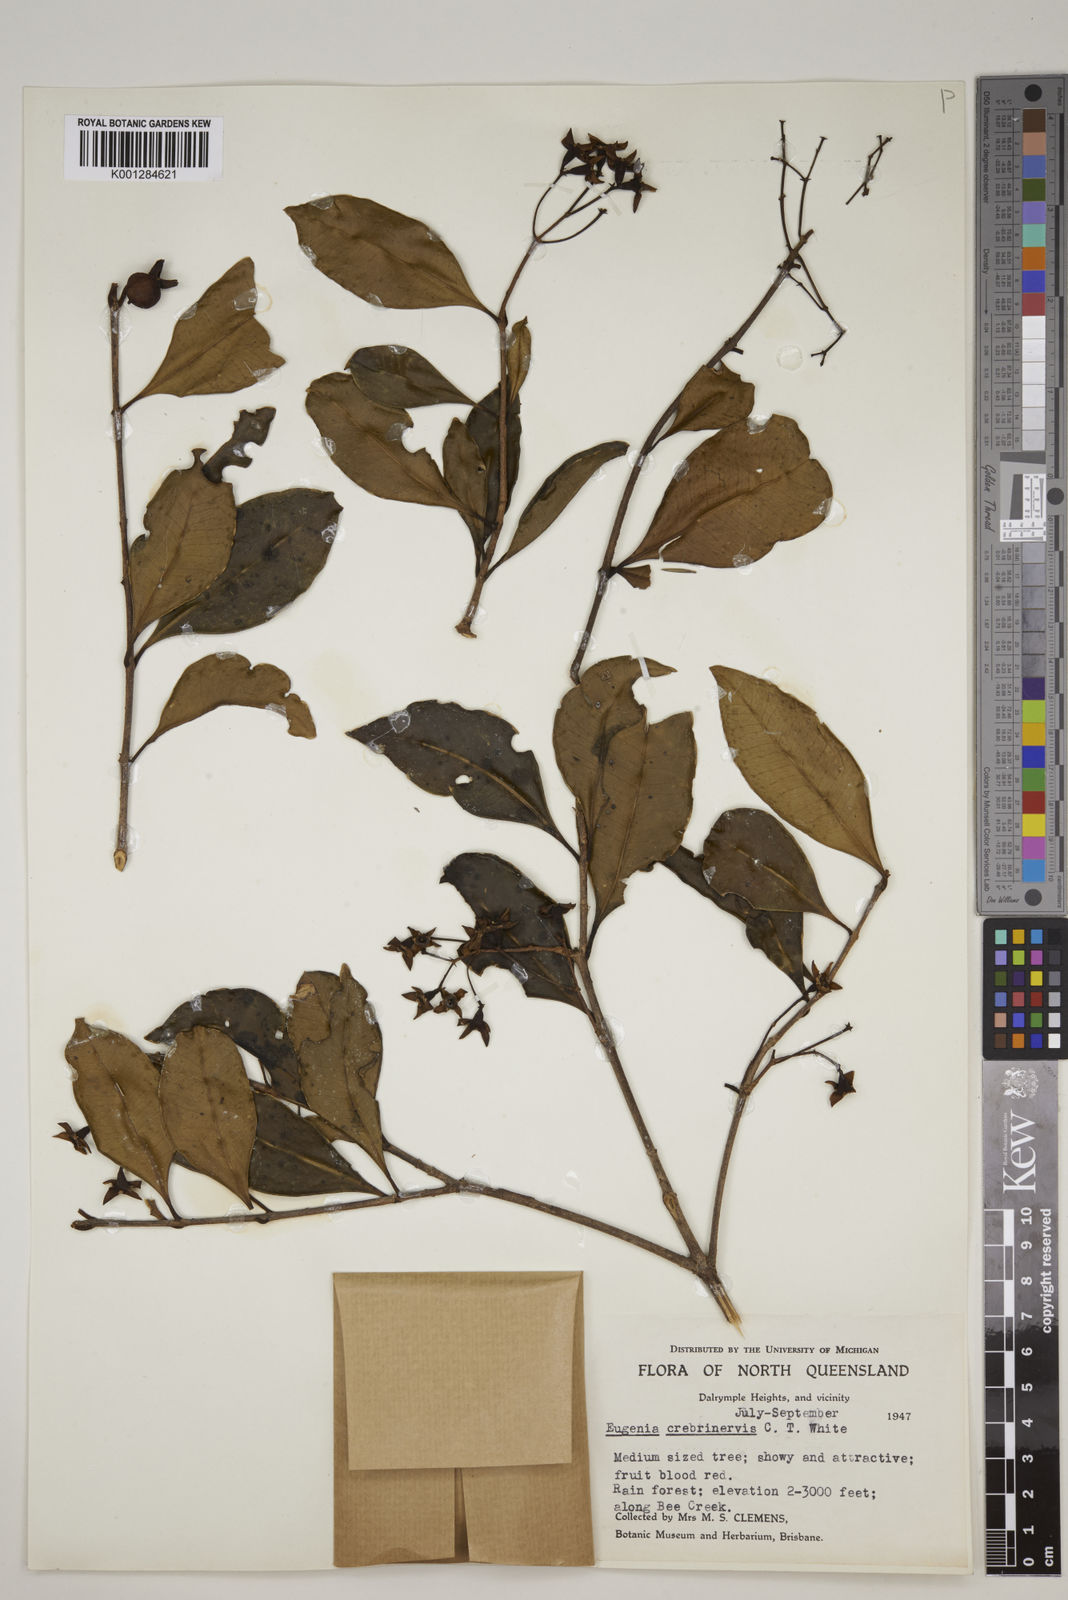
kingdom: Plantae
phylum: Tracheophyta
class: Magnoliopsida
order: Myrtales
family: Myrtaceae
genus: Syzygium
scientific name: Syzygium crebrinerve
